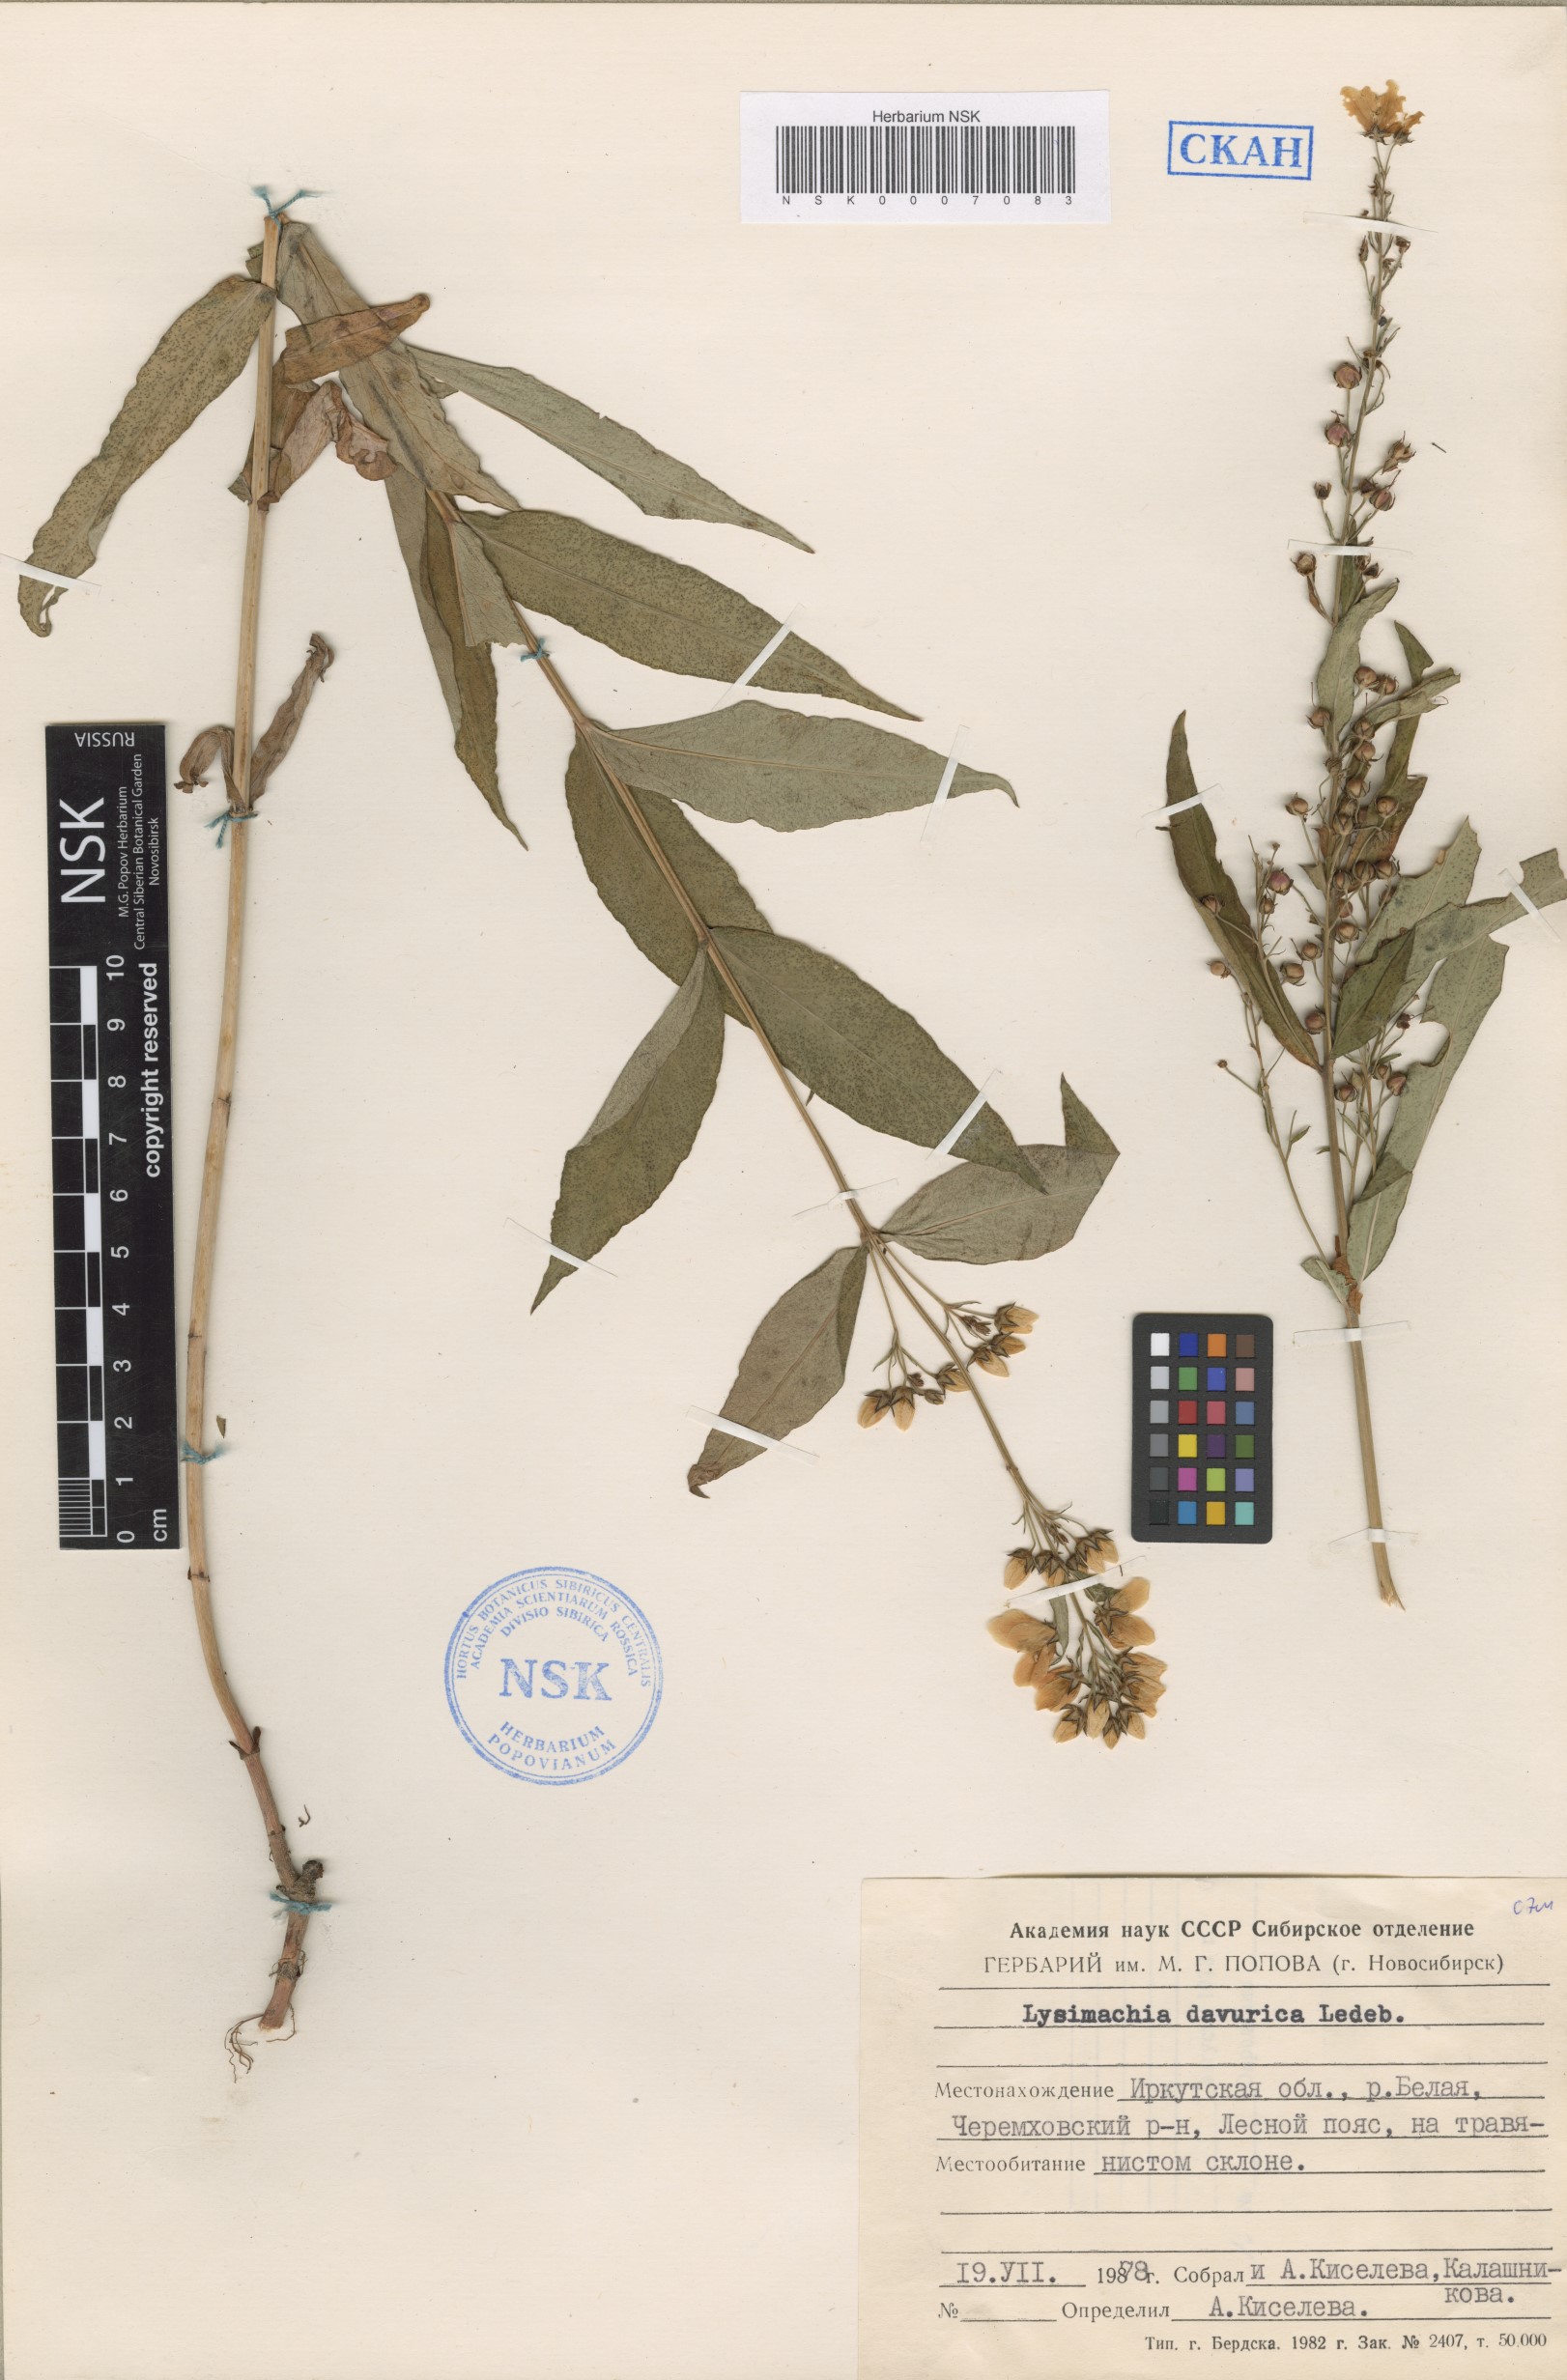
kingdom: Plantae
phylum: Tracheophyta
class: Magnoliopsida
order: Ericales
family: Primulaceae
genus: Lysimachia
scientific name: Lysimachia davurica
